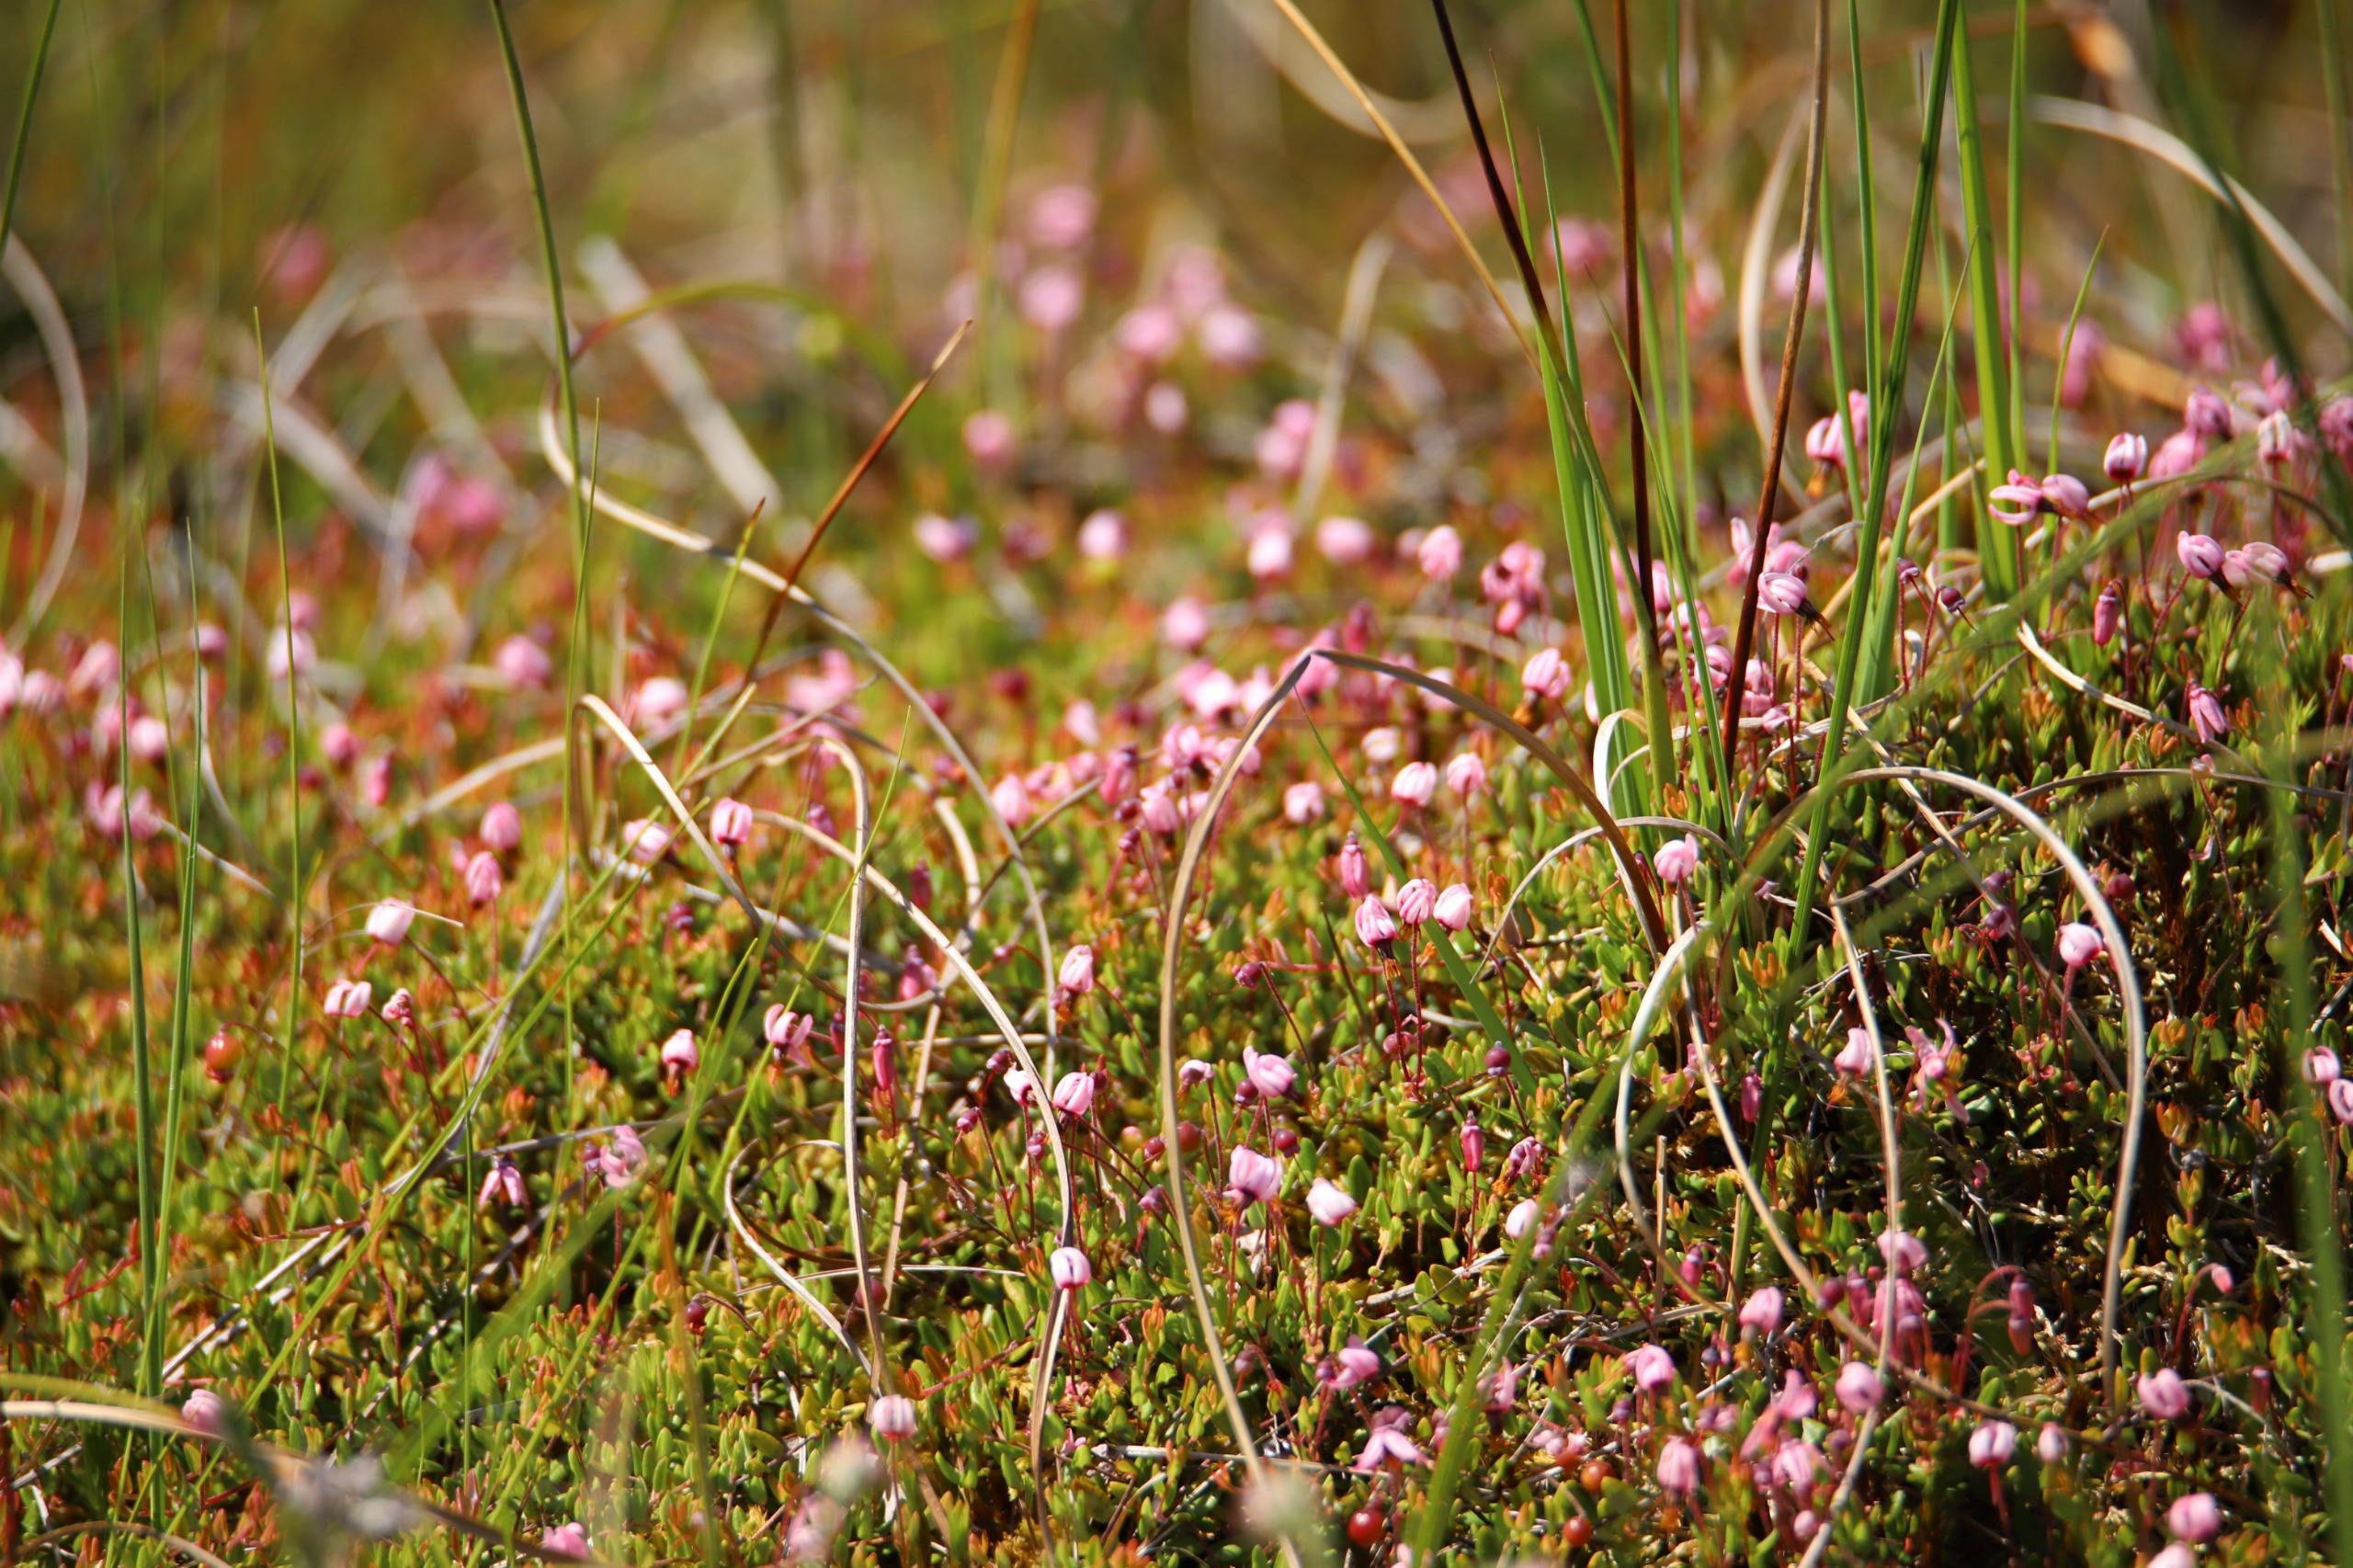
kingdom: Plantae
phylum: Tracheophyta
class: Magnoliopsida
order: Ericales
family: Ericaceae
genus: Vaccinium
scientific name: Vaccinium oxycoccos
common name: Tranebær
